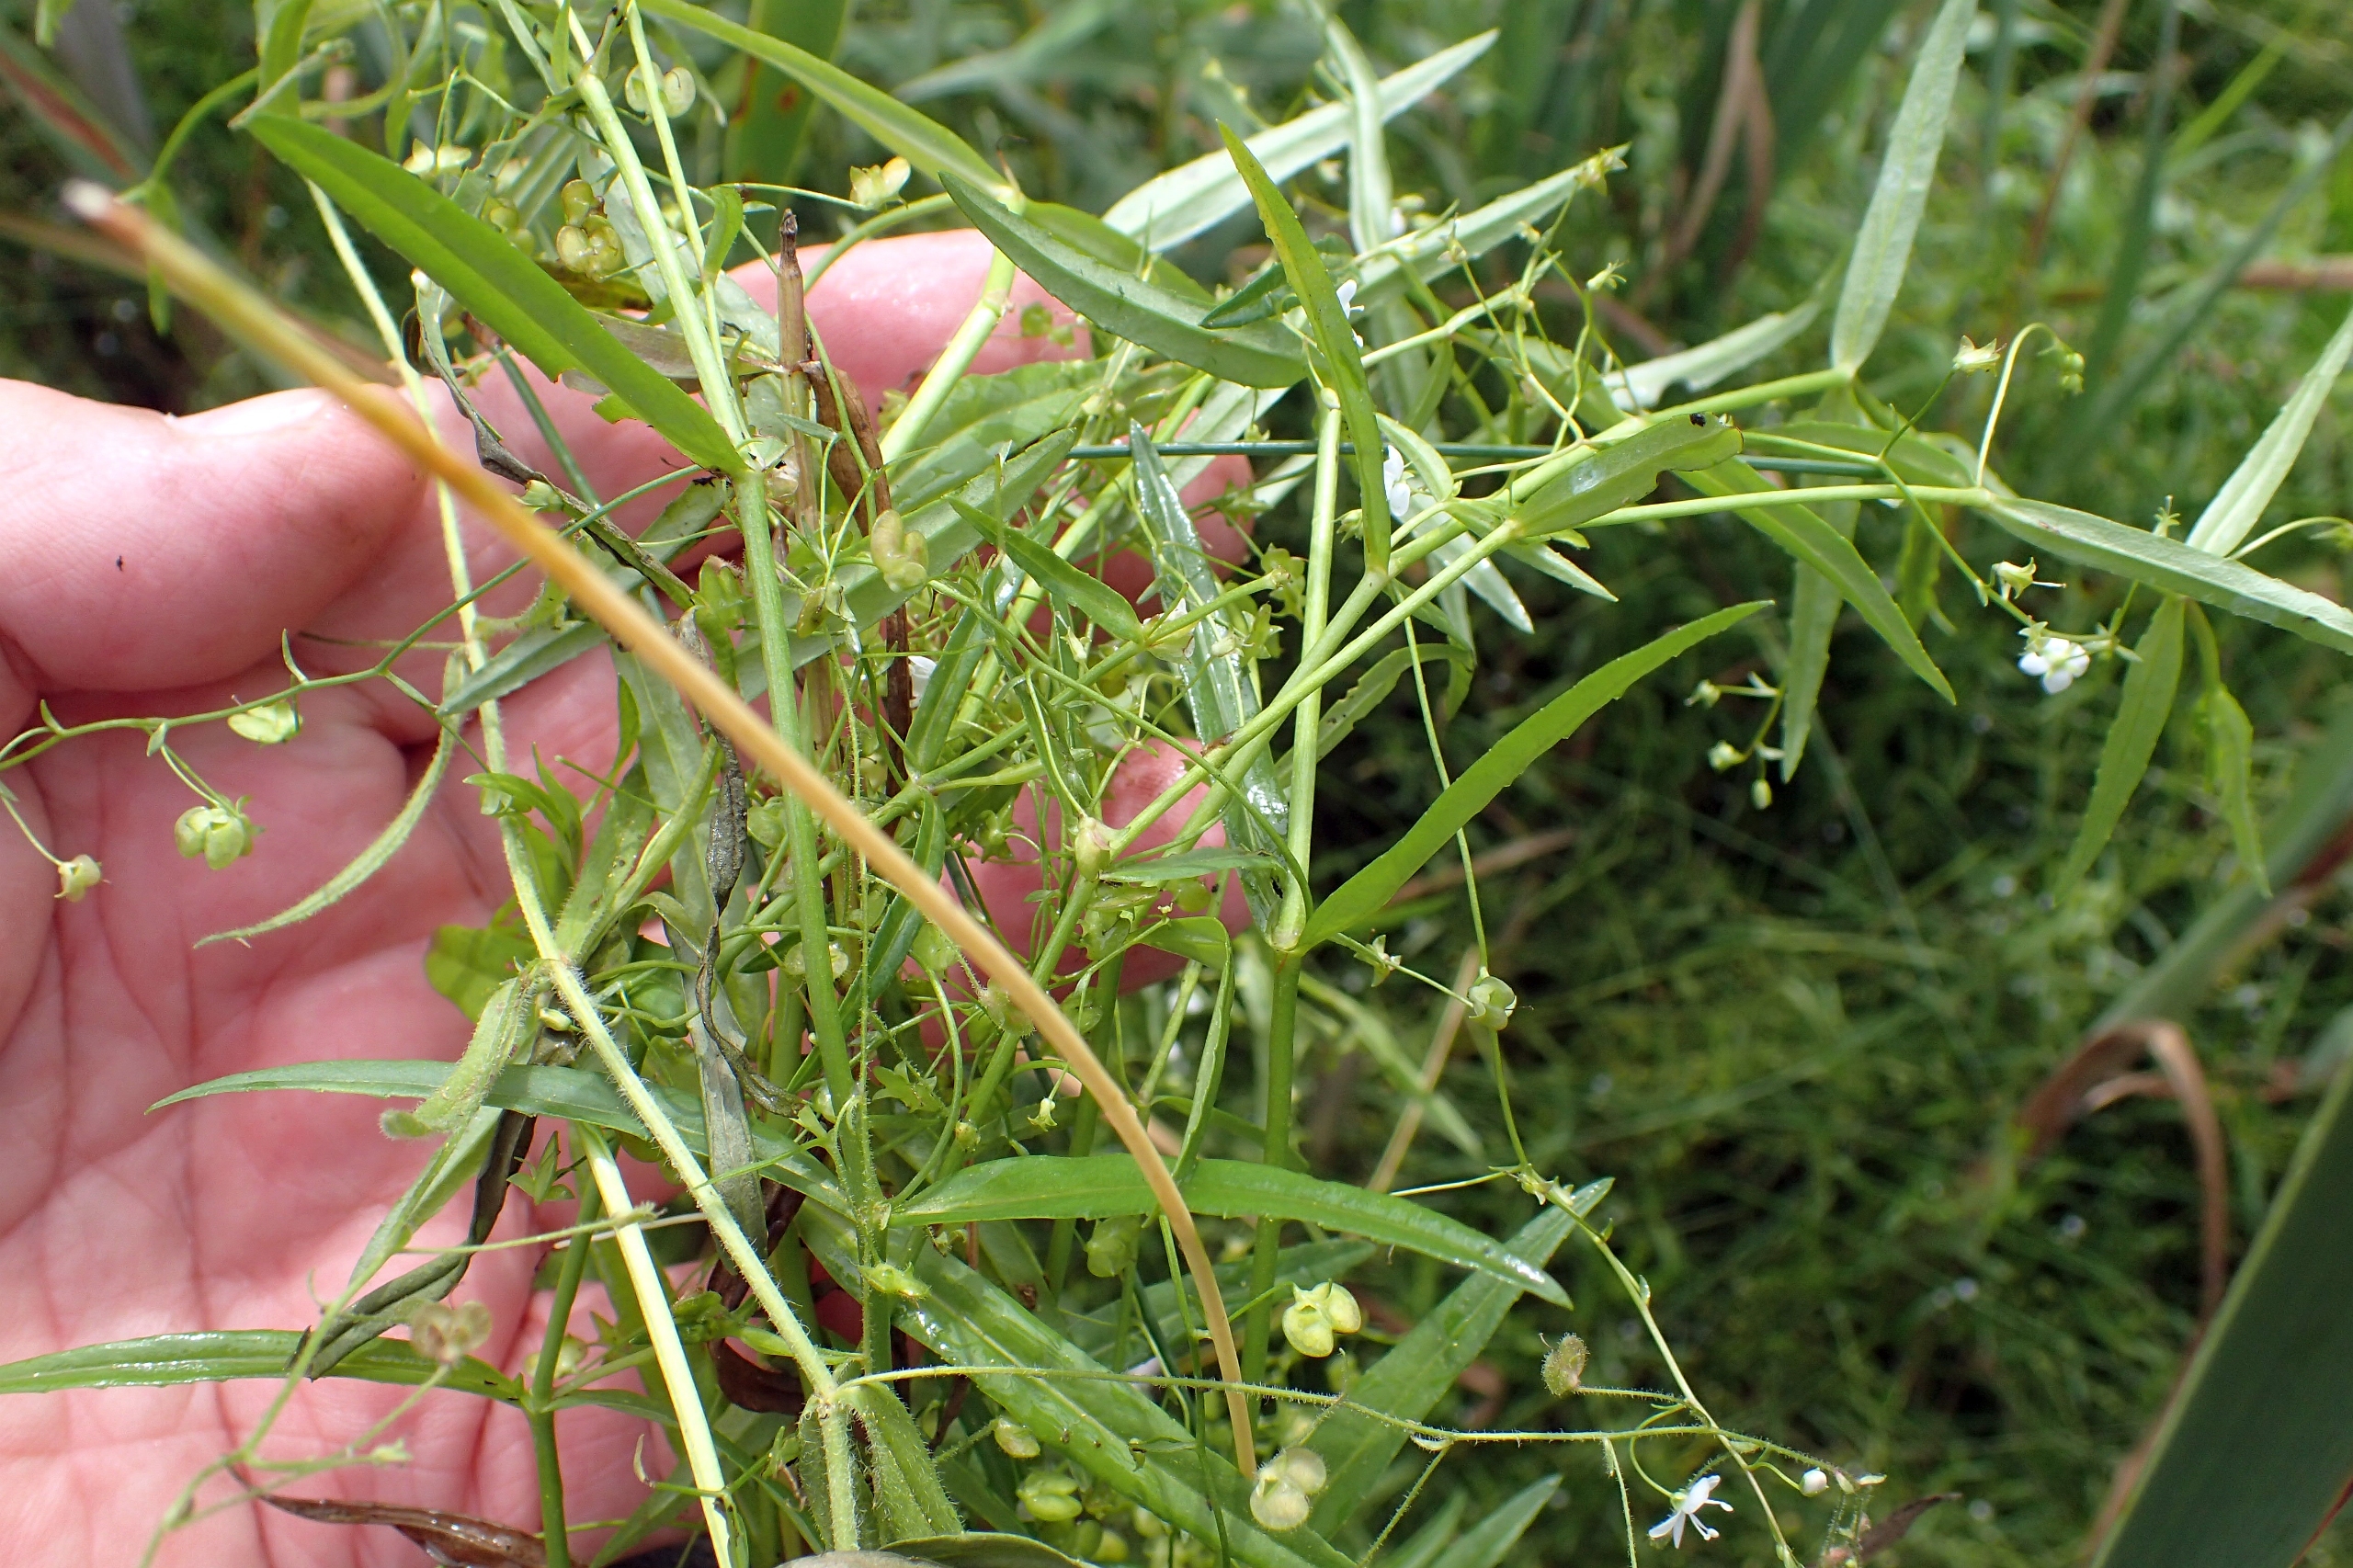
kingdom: Plantae
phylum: Tracheophyta
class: Magnoliopsida
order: Lamiales
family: Plantaginaceae
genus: Veronica
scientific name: Veronica scutellata
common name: Smalbladet ærenpris
